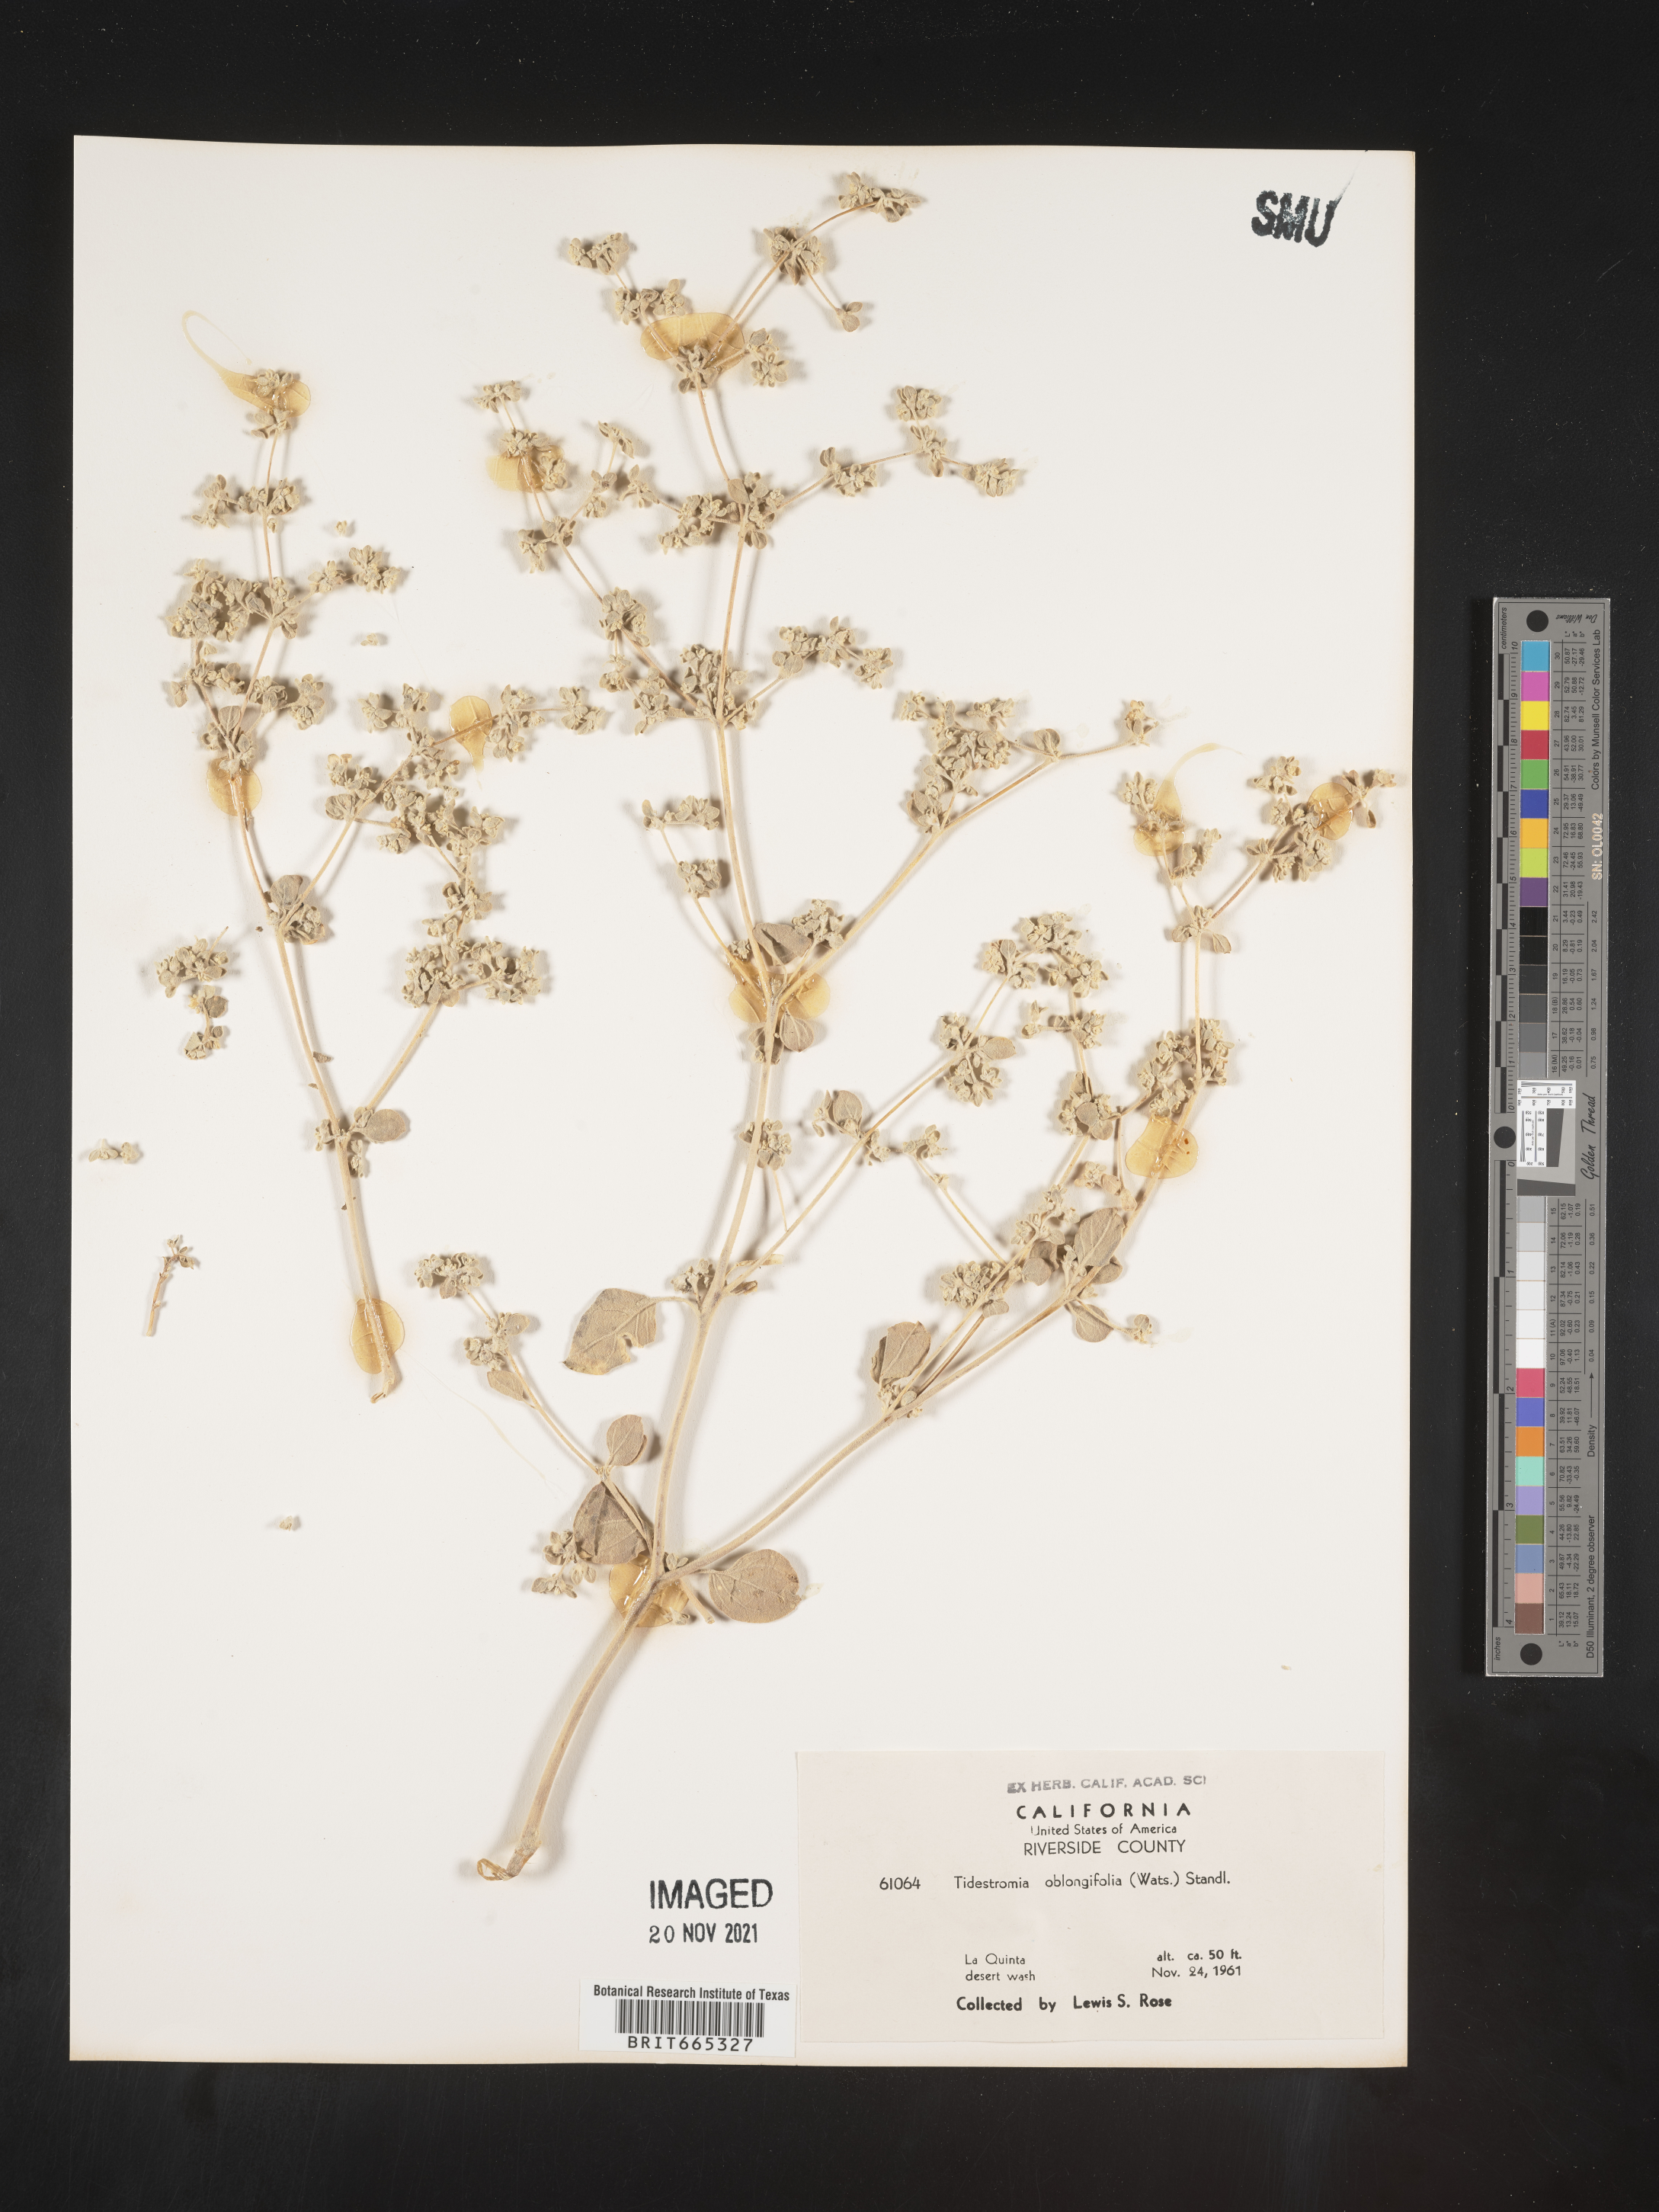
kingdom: Plantae
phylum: Tracheophyta
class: Magnoliopsida
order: Caryophyllales
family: Amaranthaceae
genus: Tidestromia
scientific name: Tidestromia suffruticosa
